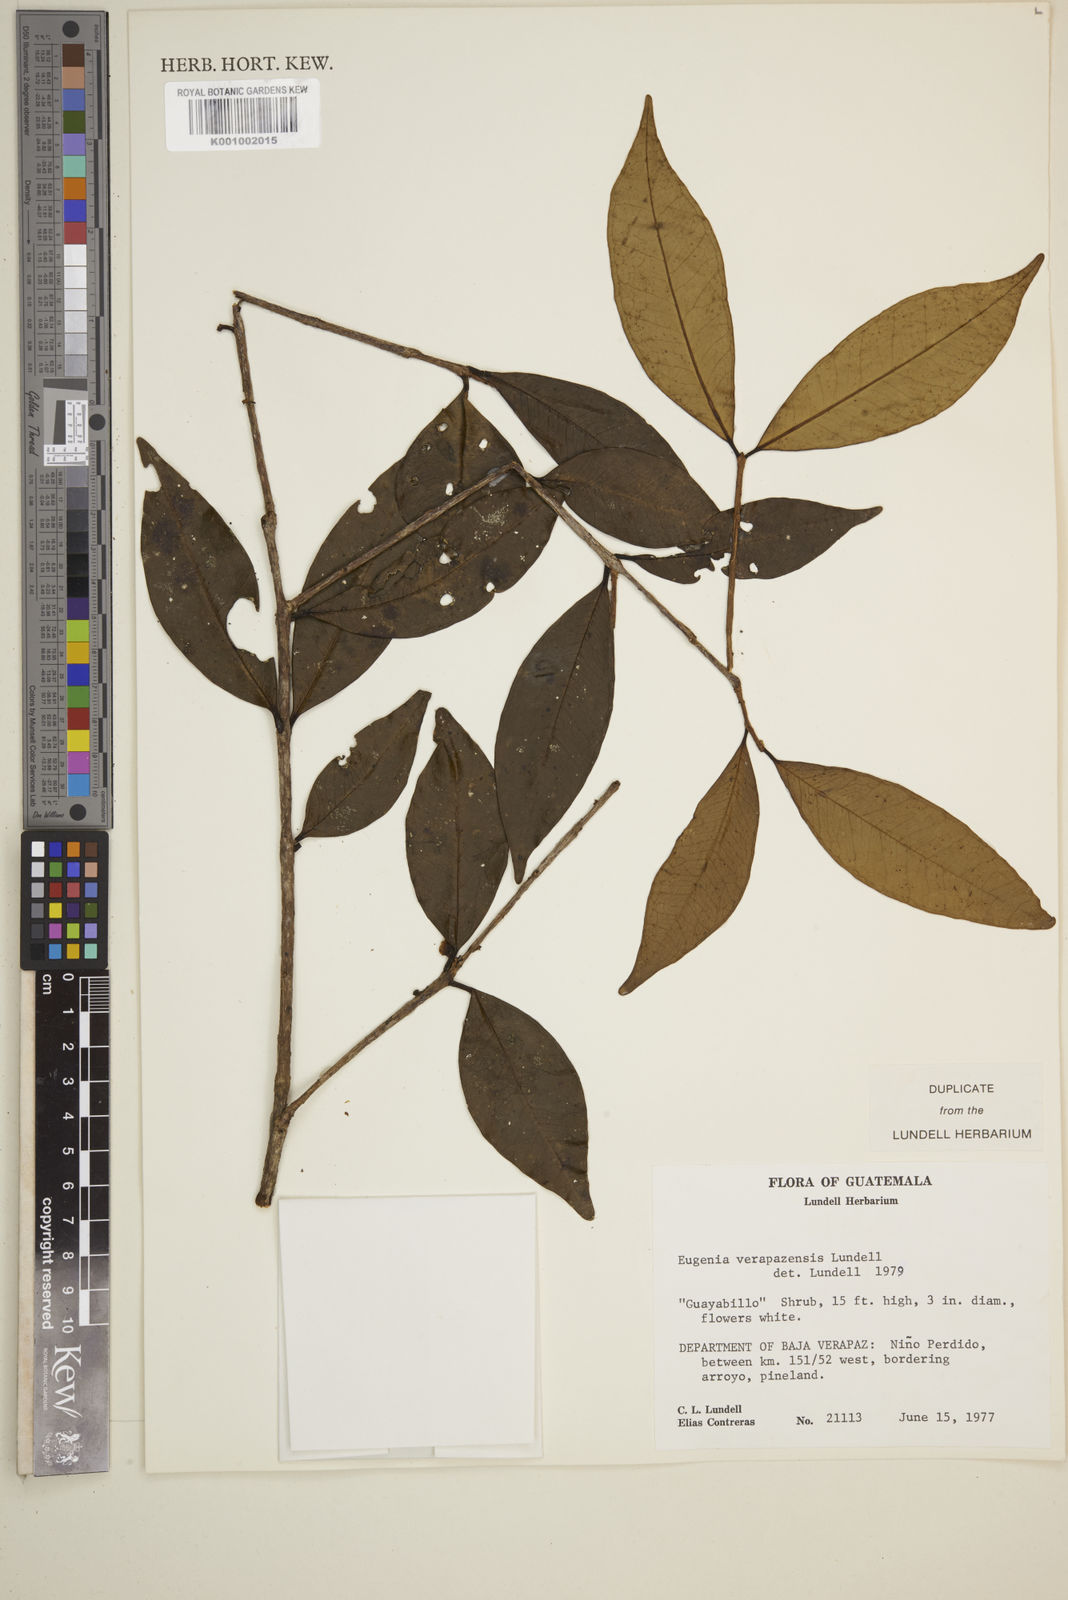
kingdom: Plantae
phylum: Tracheophyta
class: Magnoliopsida
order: Myrtales
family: Myrtaceae
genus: Eugenia
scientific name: Eugenia verapazensis
